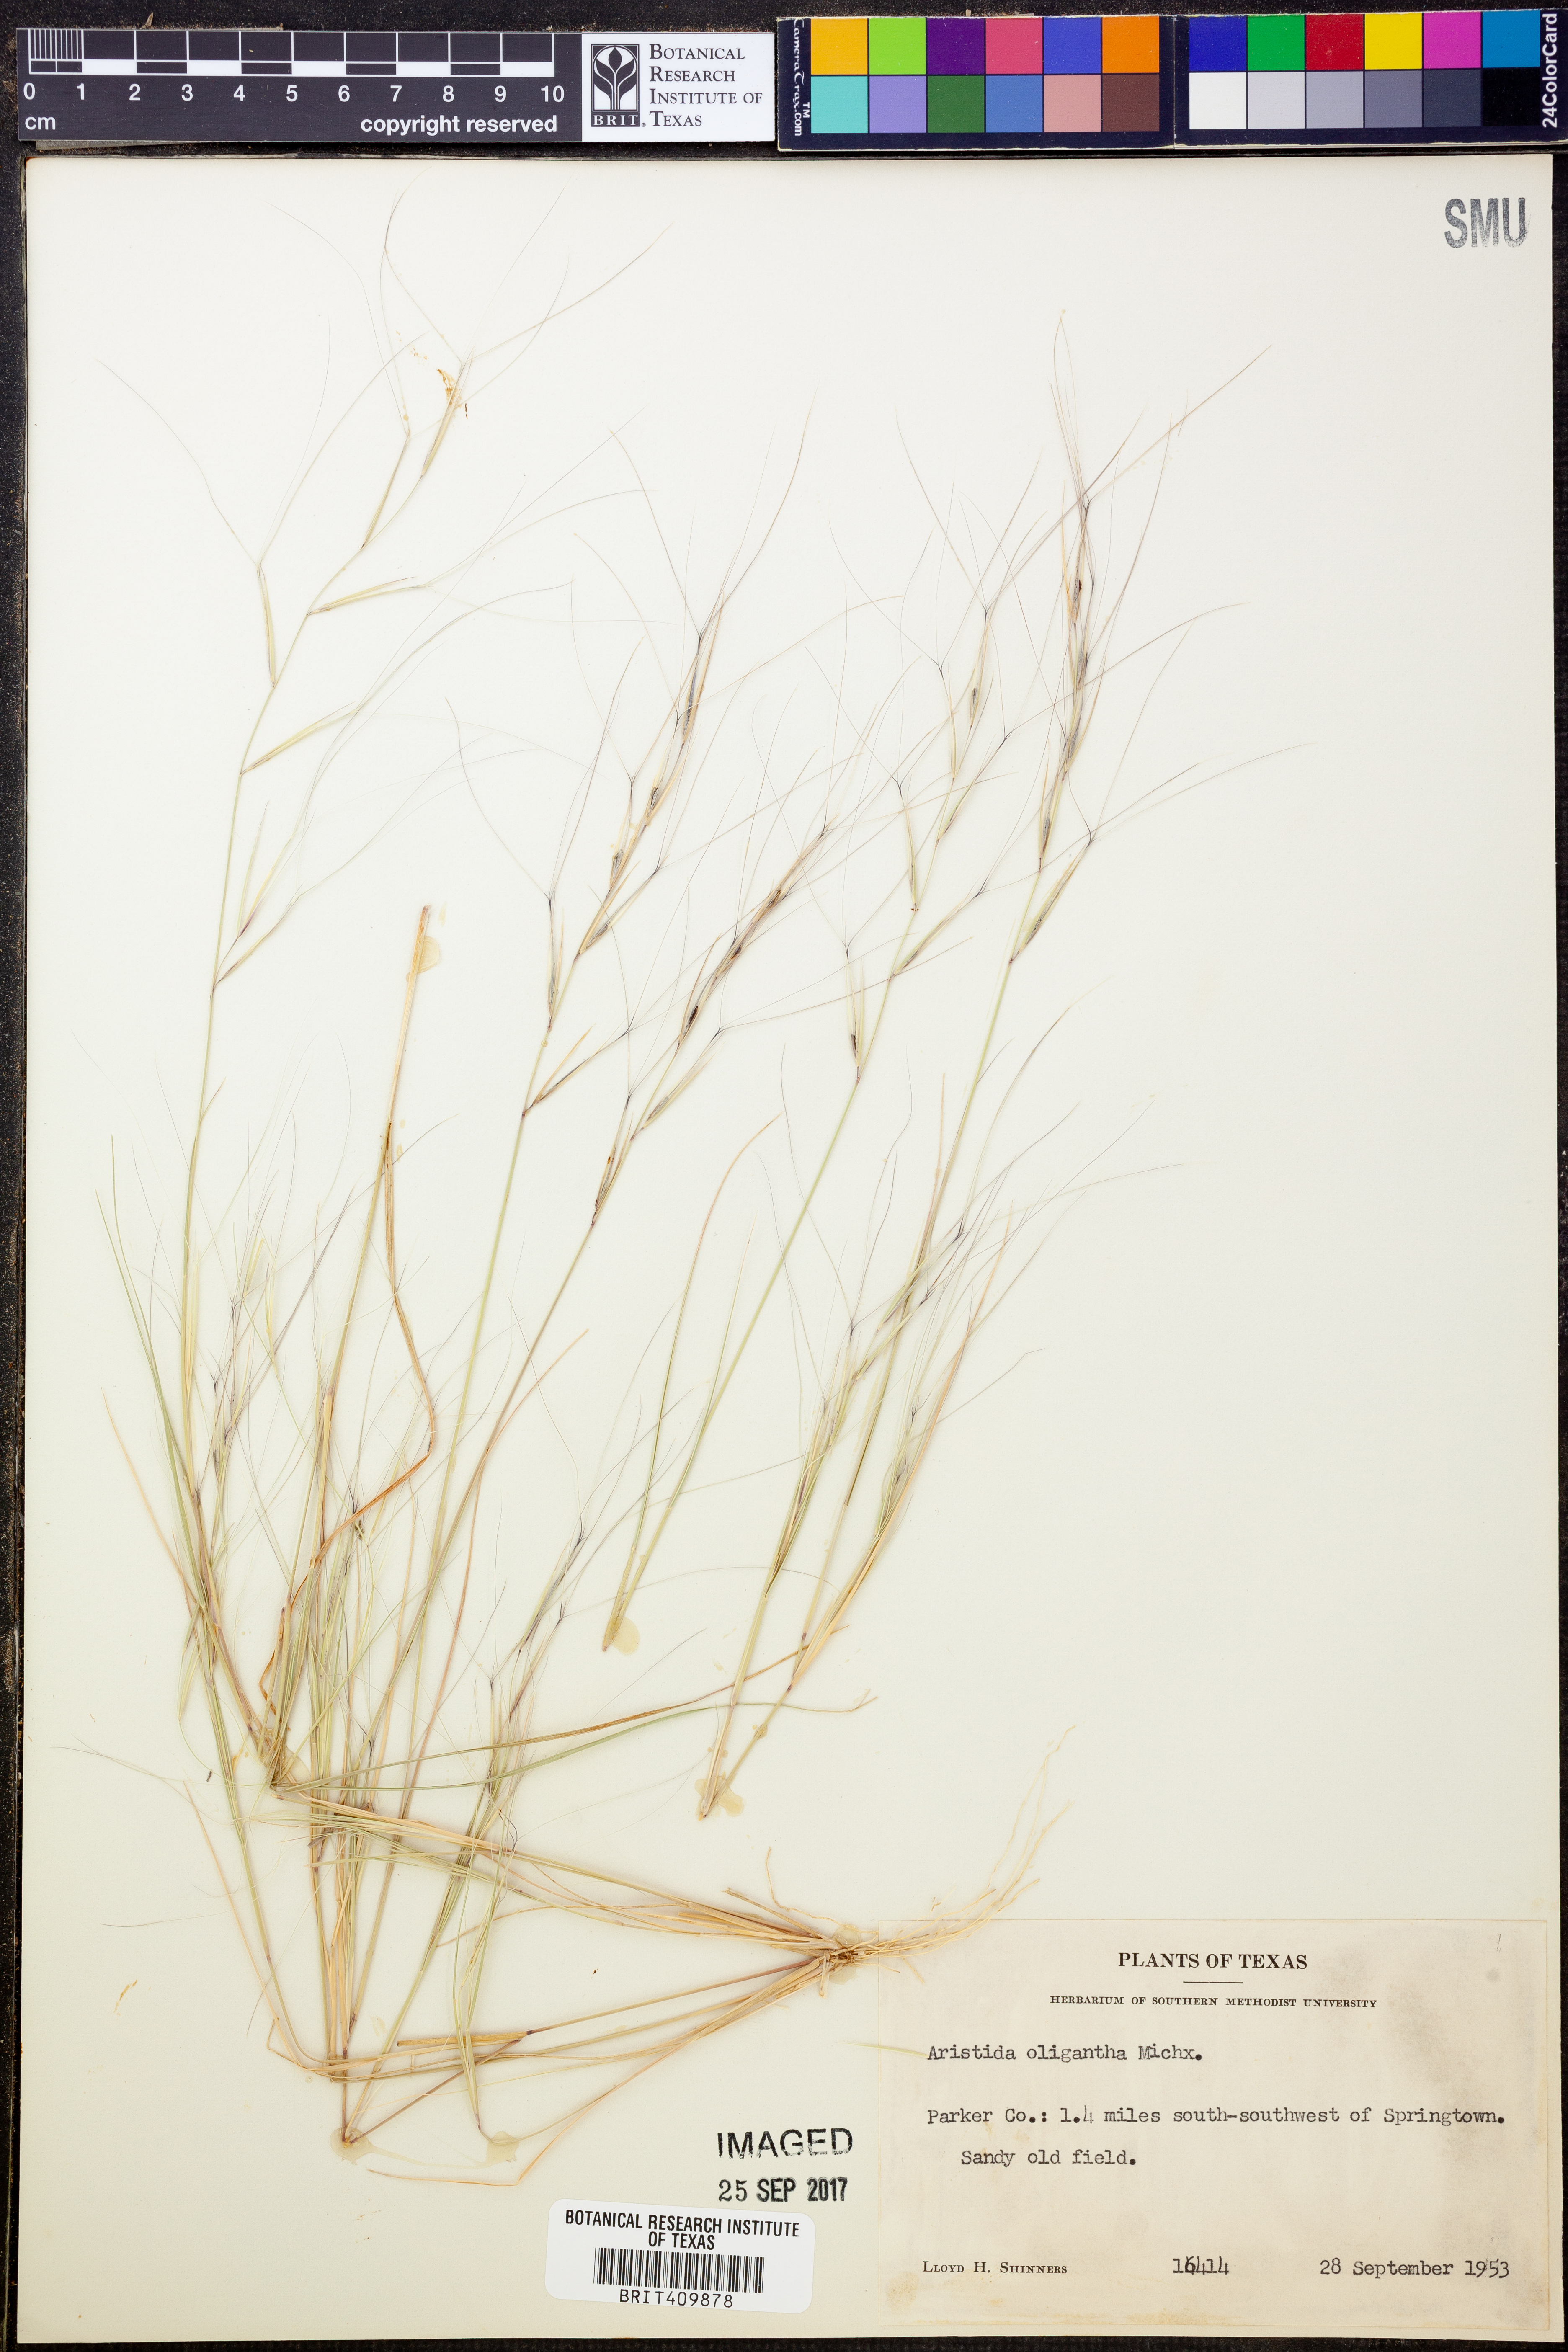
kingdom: Plantae
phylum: Tracheophyta
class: Liliopsida
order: Poales
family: Poaceae
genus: Aristida
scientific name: Aristida oligantha
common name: Few-flowered aristida
